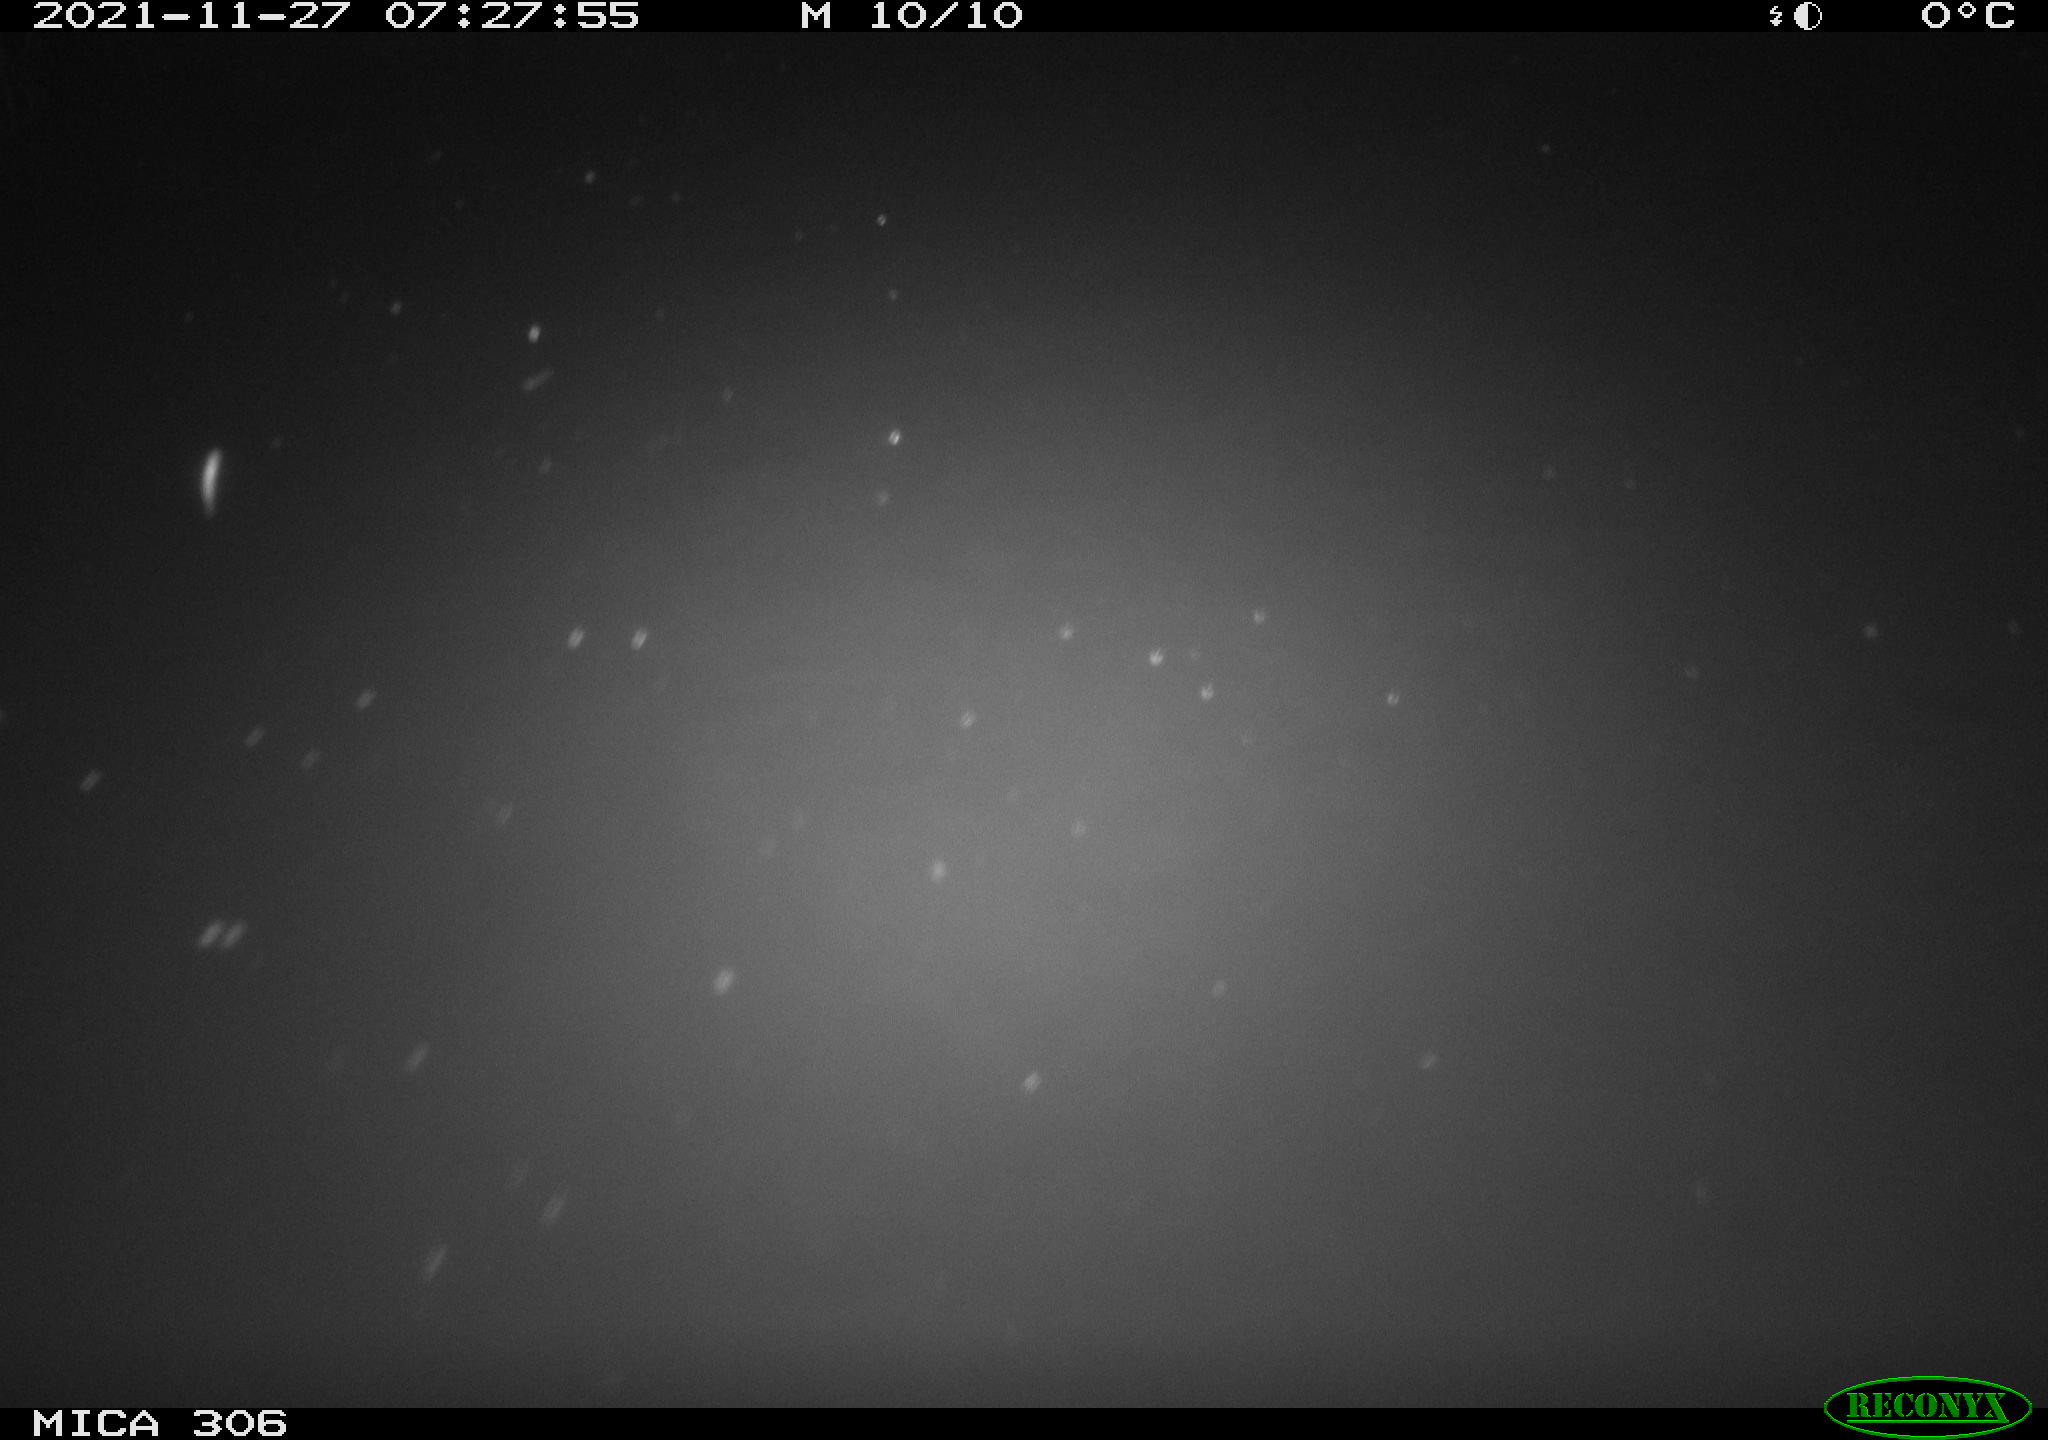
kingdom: Animalia
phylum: Chordata
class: Aves
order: Gruiformes
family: Rallidae
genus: Fulica
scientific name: Fulica atra
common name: Eurasian coot
